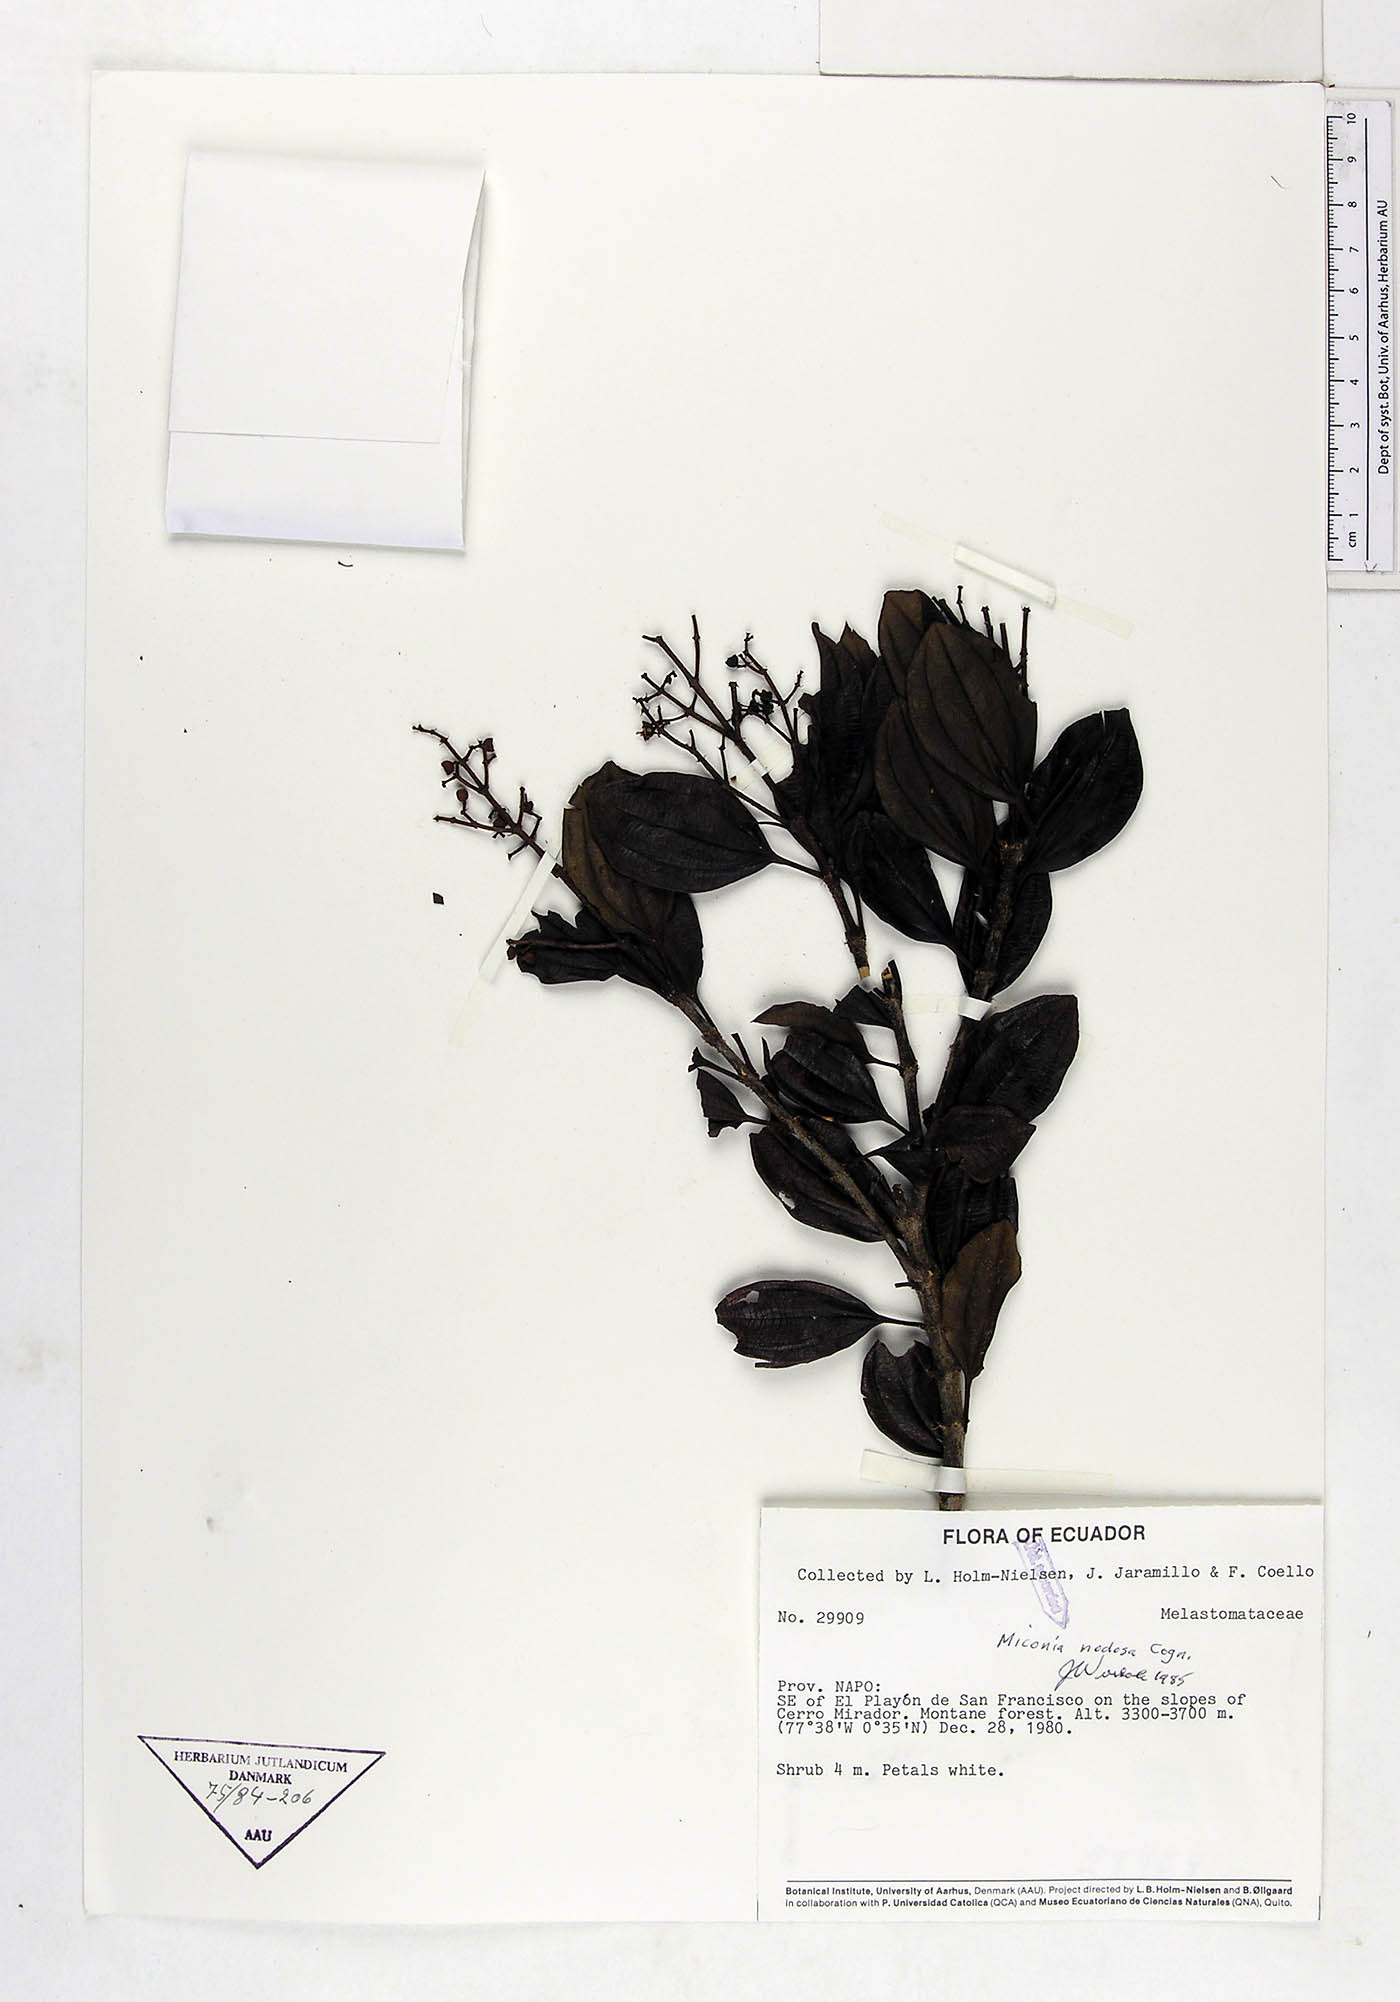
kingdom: Plantae
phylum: Tracheophyta
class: Magnoliopsida
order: Myrtales
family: Melastomataceae
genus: Miconia
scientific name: Miconia nodosa
